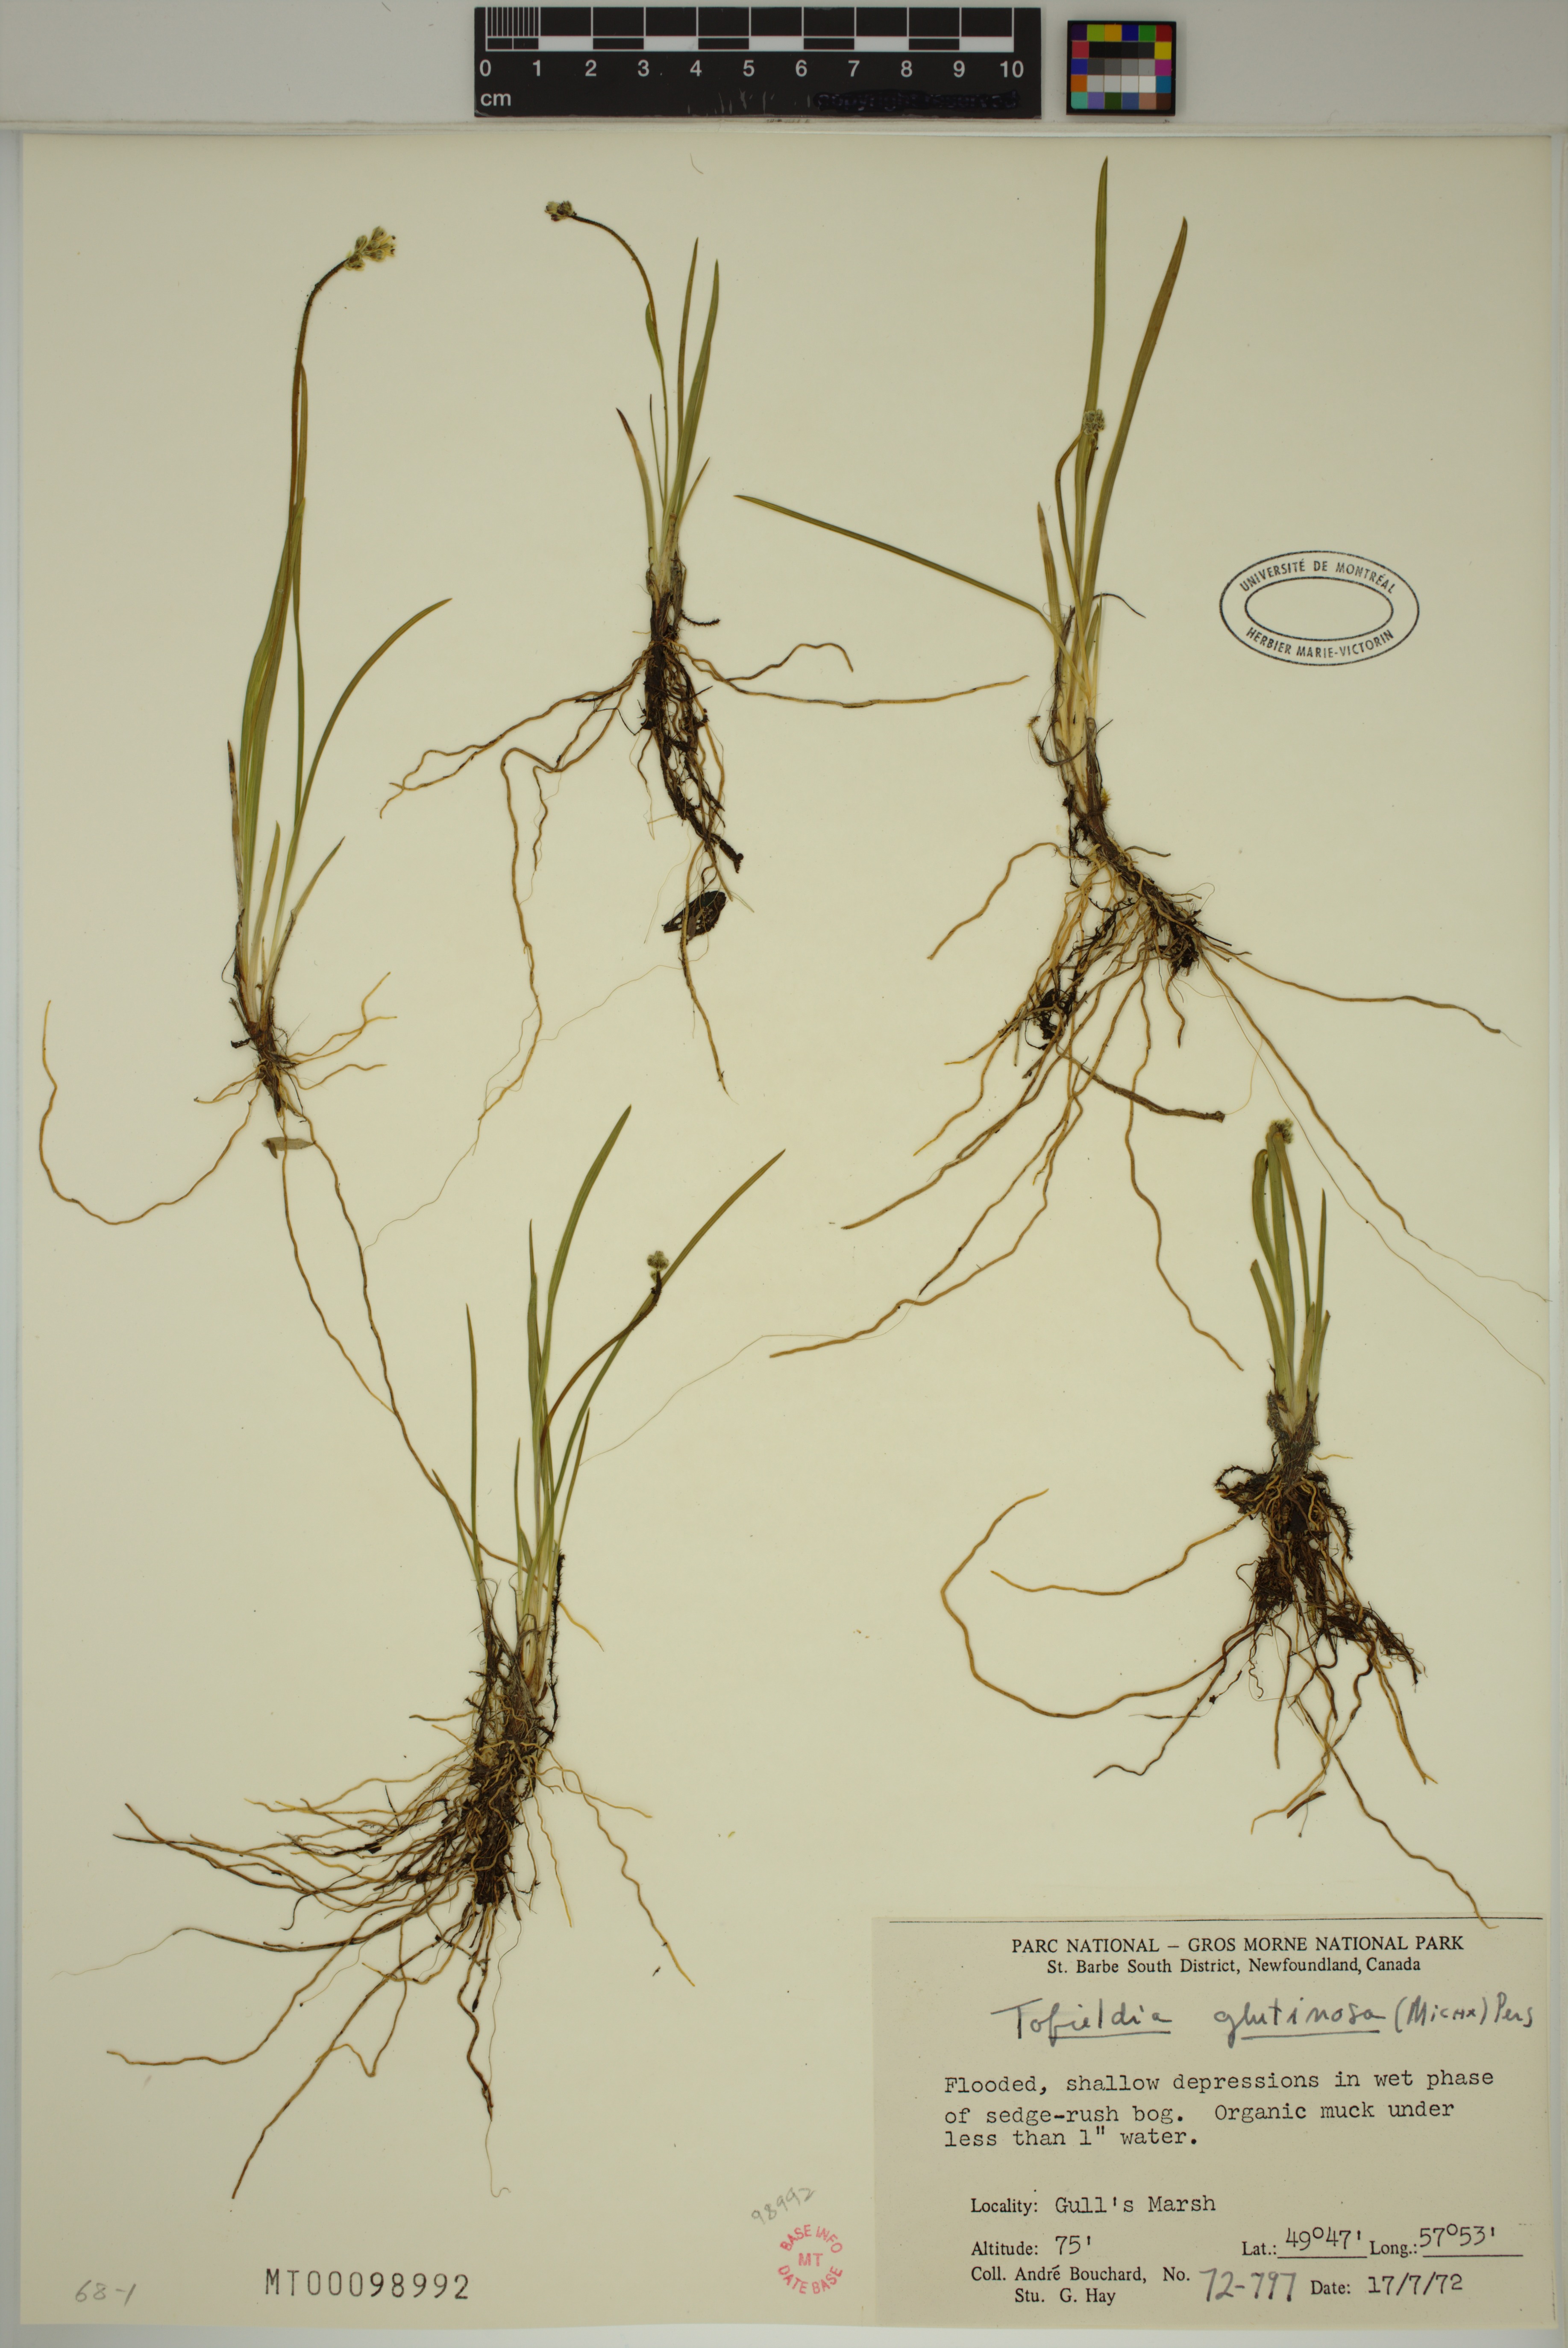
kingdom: Plantae
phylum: Tracheophyta
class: Liliopsida
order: Alismatales
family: Tofieldiaceae
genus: Triantha
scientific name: Triantha glutinosa
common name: Glutinous tofieldia
